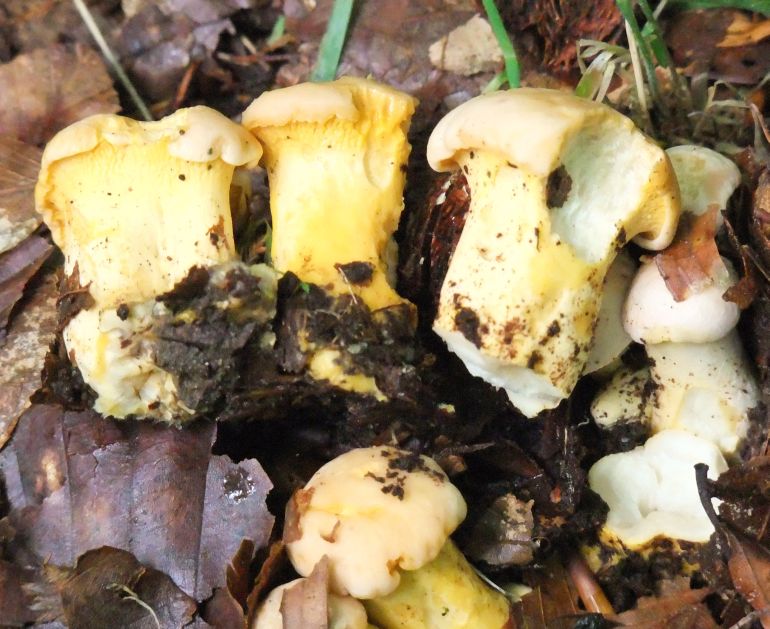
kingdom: Fungi
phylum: Basidiomycota
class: Agaricomycetes
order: Cantharellales
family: Hydnaceae
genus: Cantharellus
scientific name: Cantharellus pallens
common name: bleg kantarel
